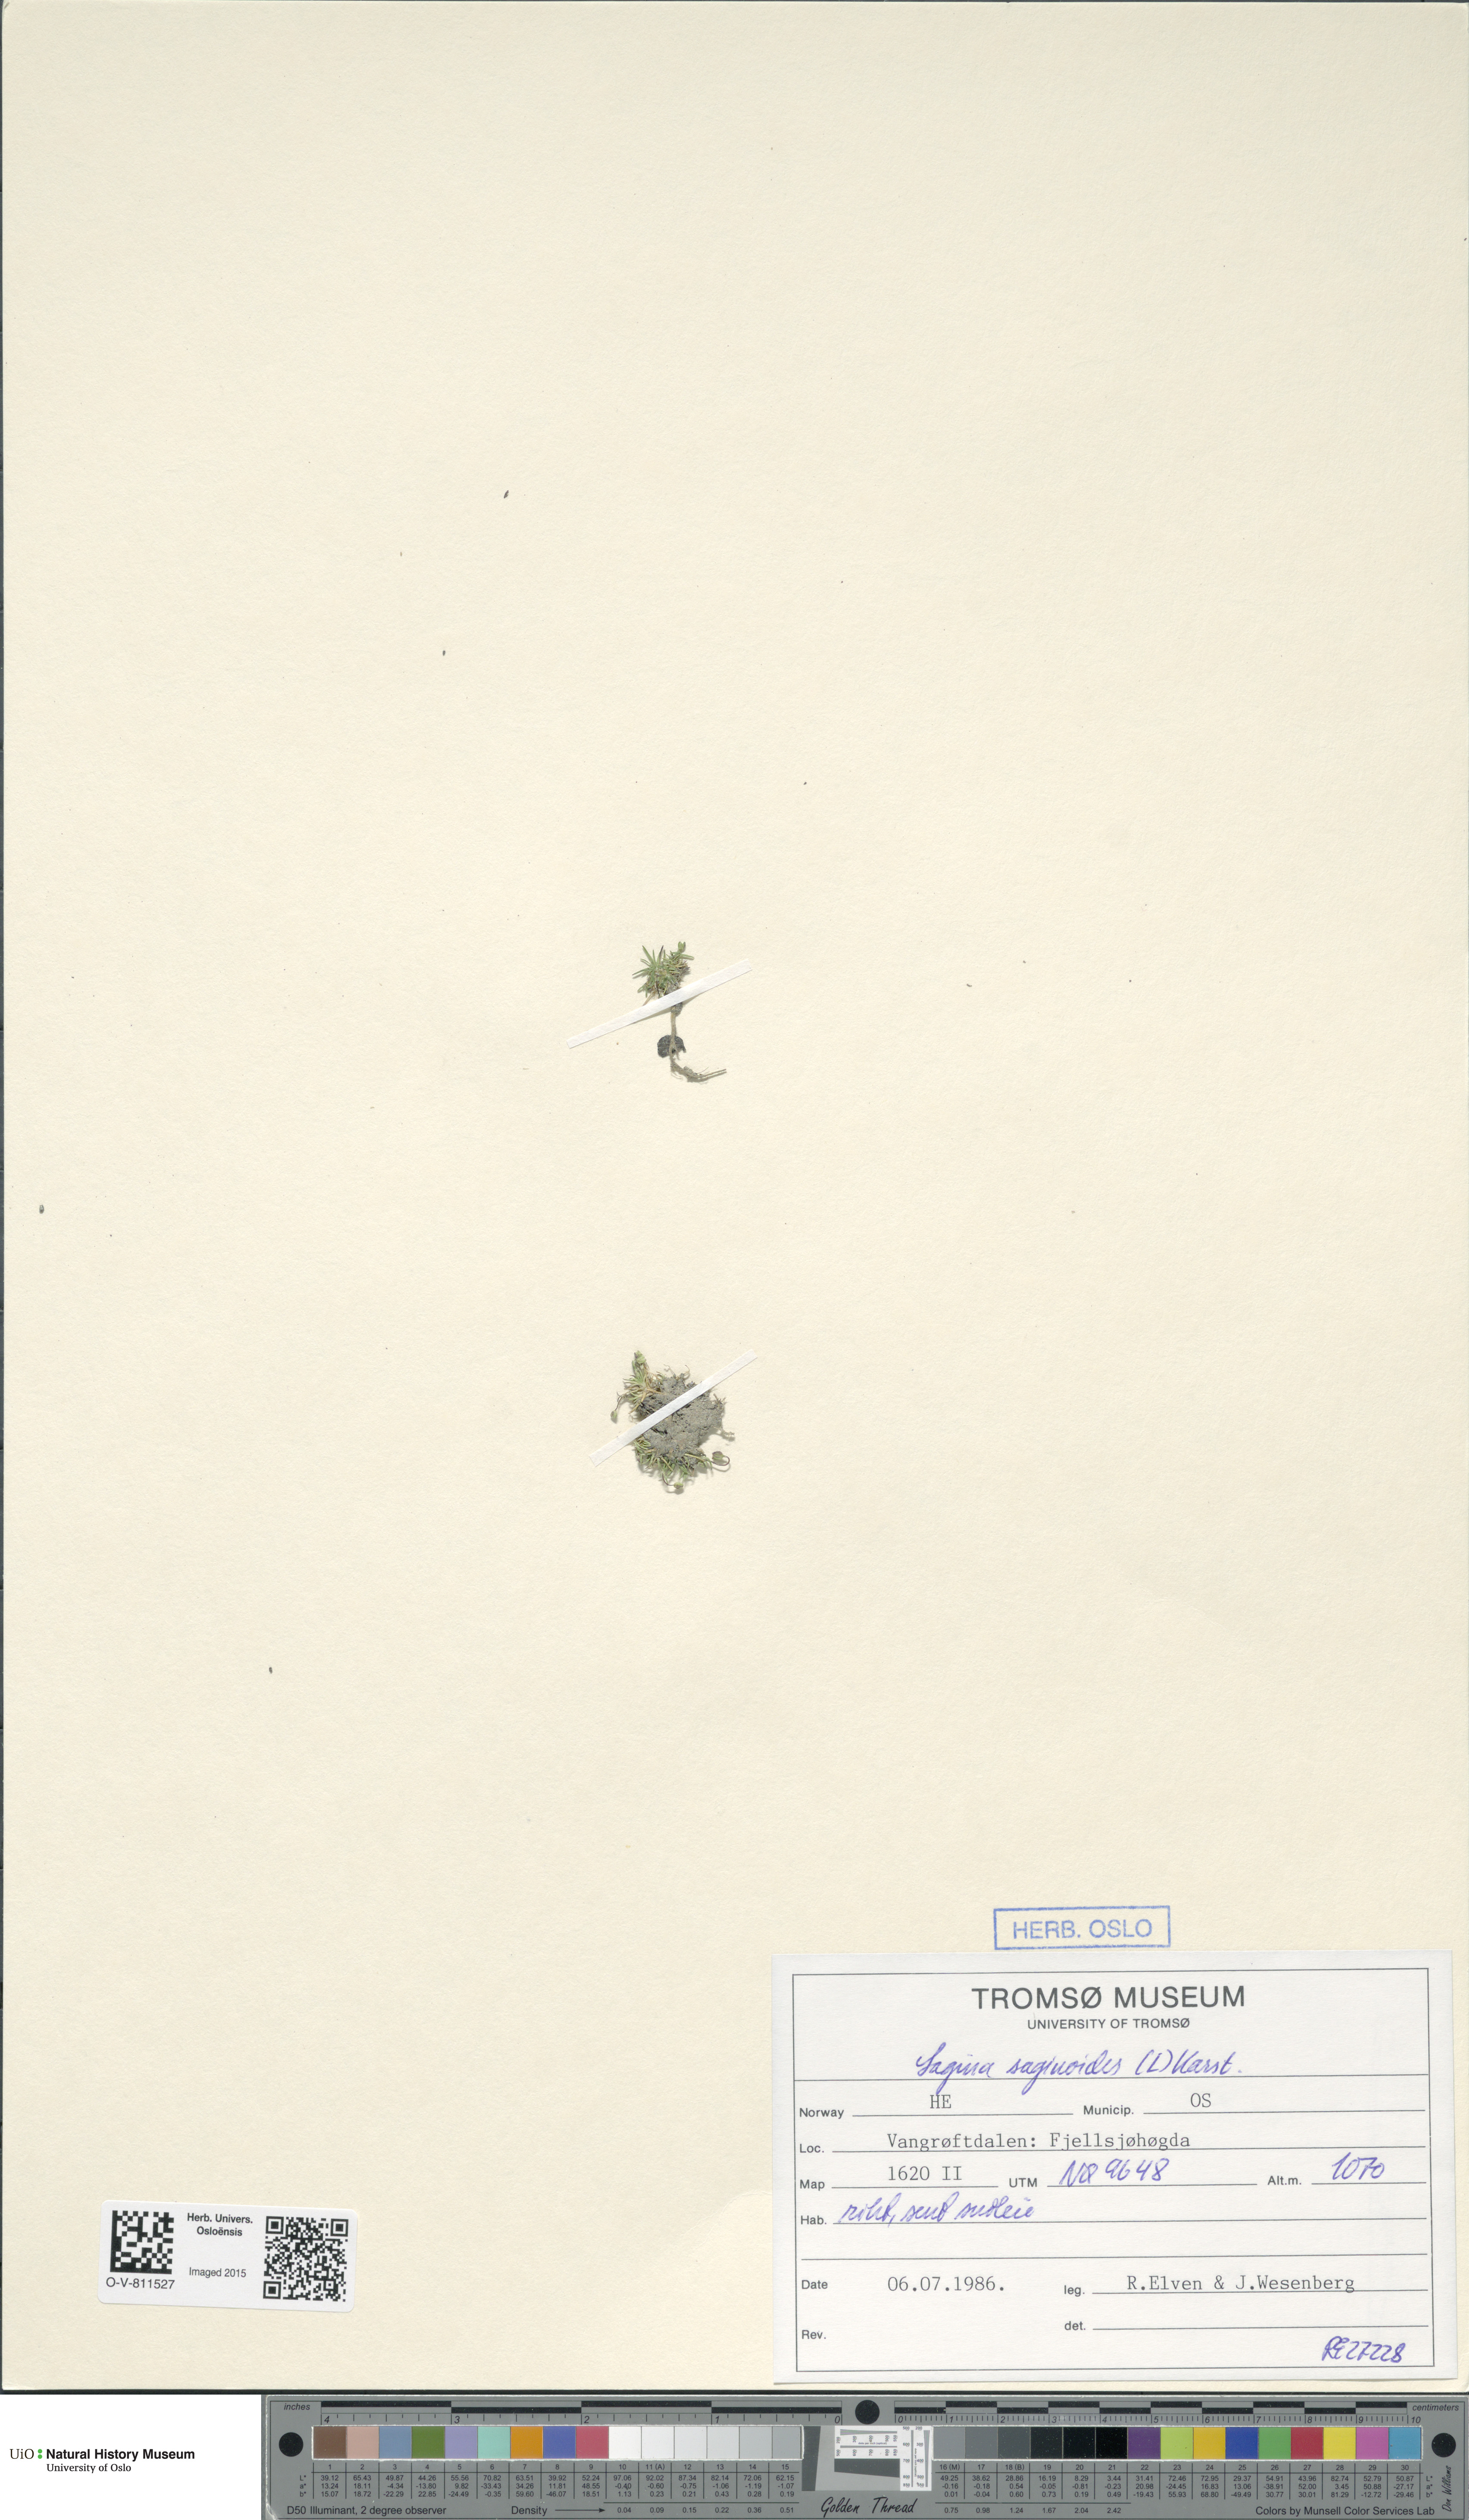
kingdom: Plantae
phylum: Tracheophyta
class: Magnoliopsida
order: Caryophyllales
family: Caryophyllaceae
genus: Sagina
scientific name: Sagina saginoides
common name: Alpine pearlwort
